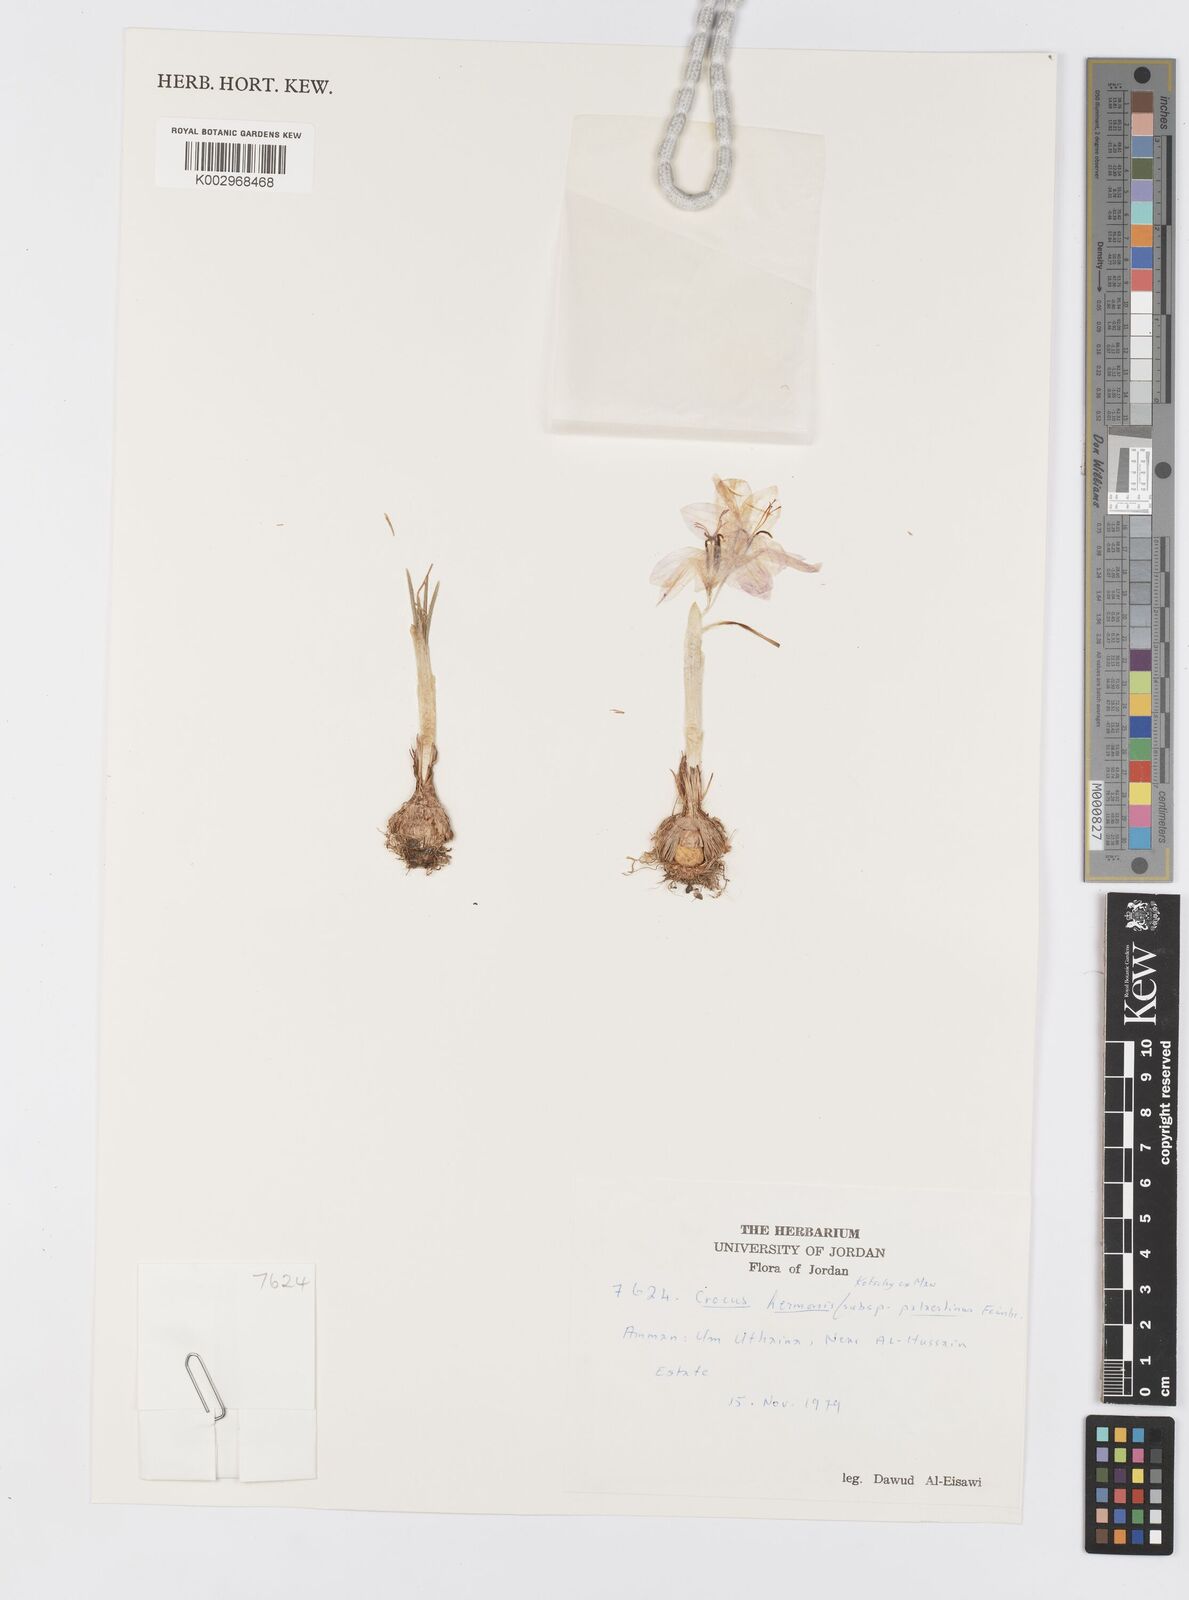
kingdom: Plantae
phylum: Tracheophyta
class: Liliopsida
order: Asparagales
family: Iridaceae
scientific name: Iridaceae
